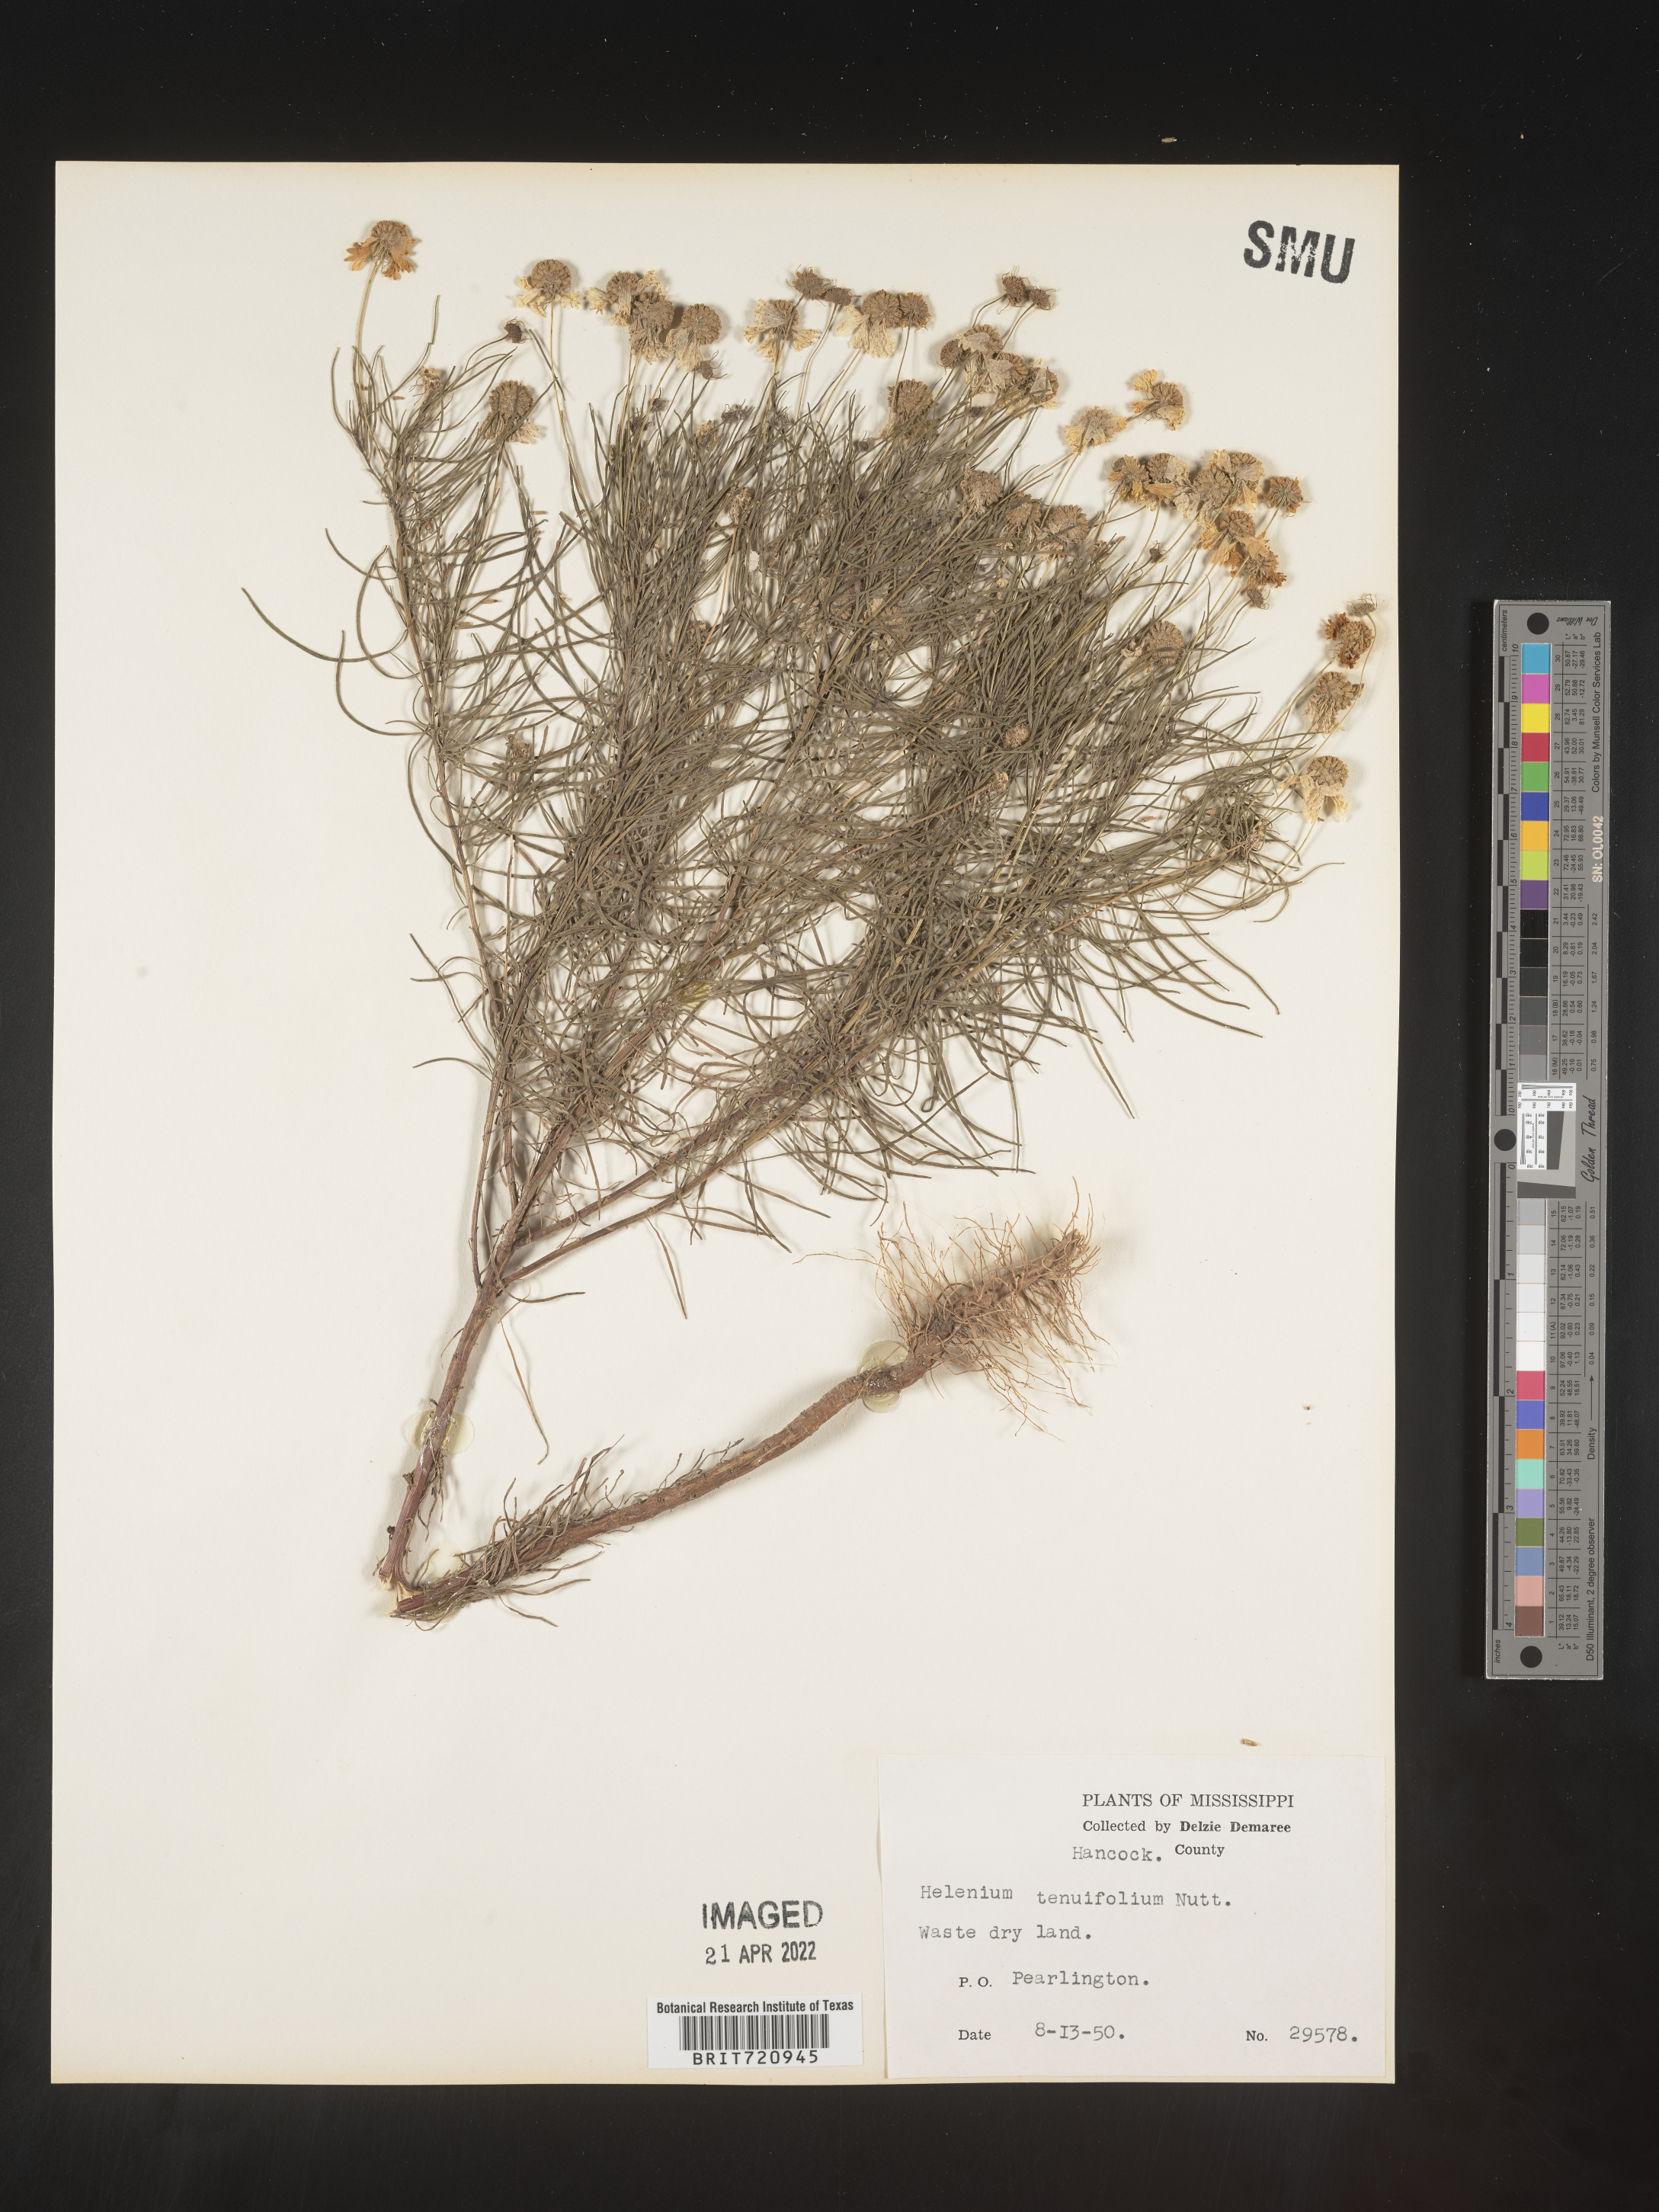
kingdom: Plantae
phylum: Tracheophyta
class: Magnoliopsida
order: Asterales
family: Asteraceae
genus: Helenium
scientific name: Helenium amarum
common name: Bitter sneezeweed
